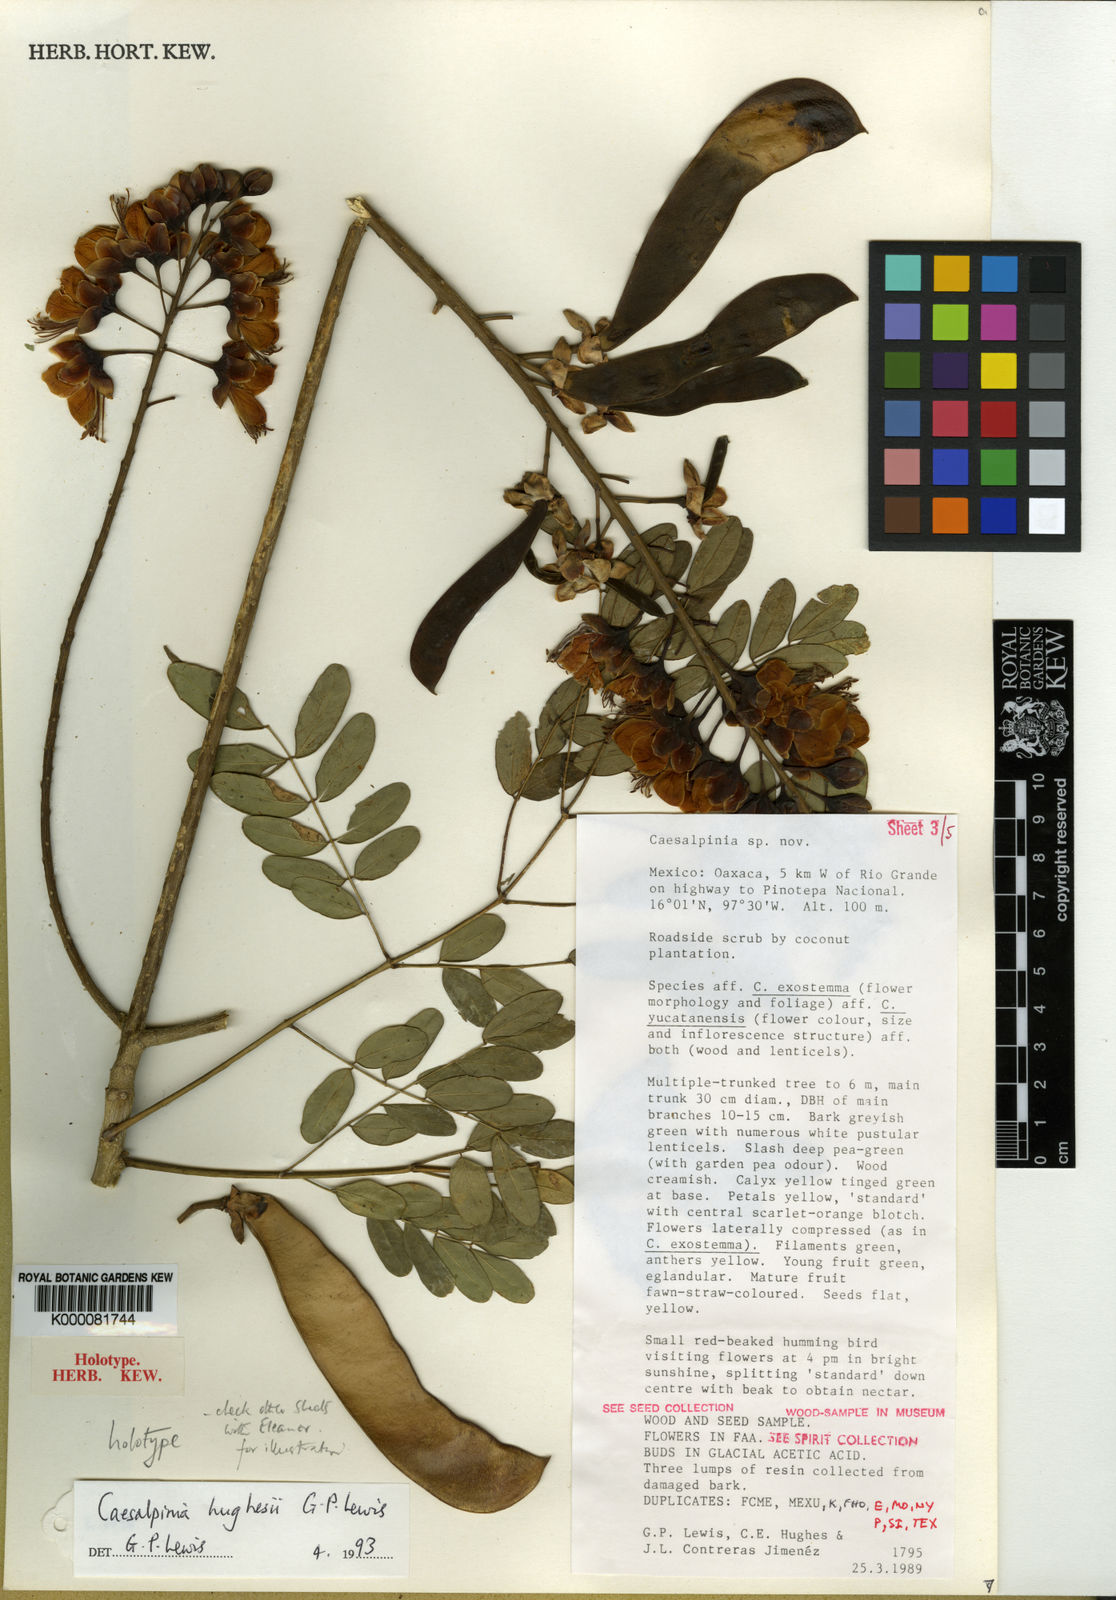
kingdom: Plantae
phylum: Tracheophyta
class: Magnoliopsida
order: Fabales
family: Fabaceae
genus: Erythrostemon
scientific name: Erythrostemon hughesii
